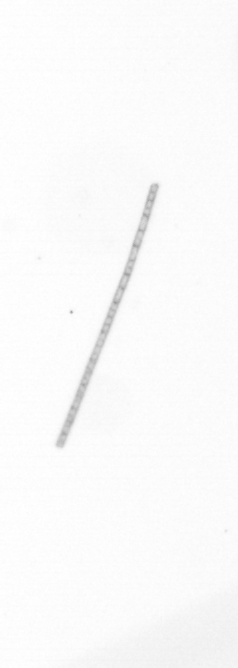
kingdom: Chromista
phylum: Ochrophyta
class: Bacillariophyceae
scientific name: Bacillariophyceae
